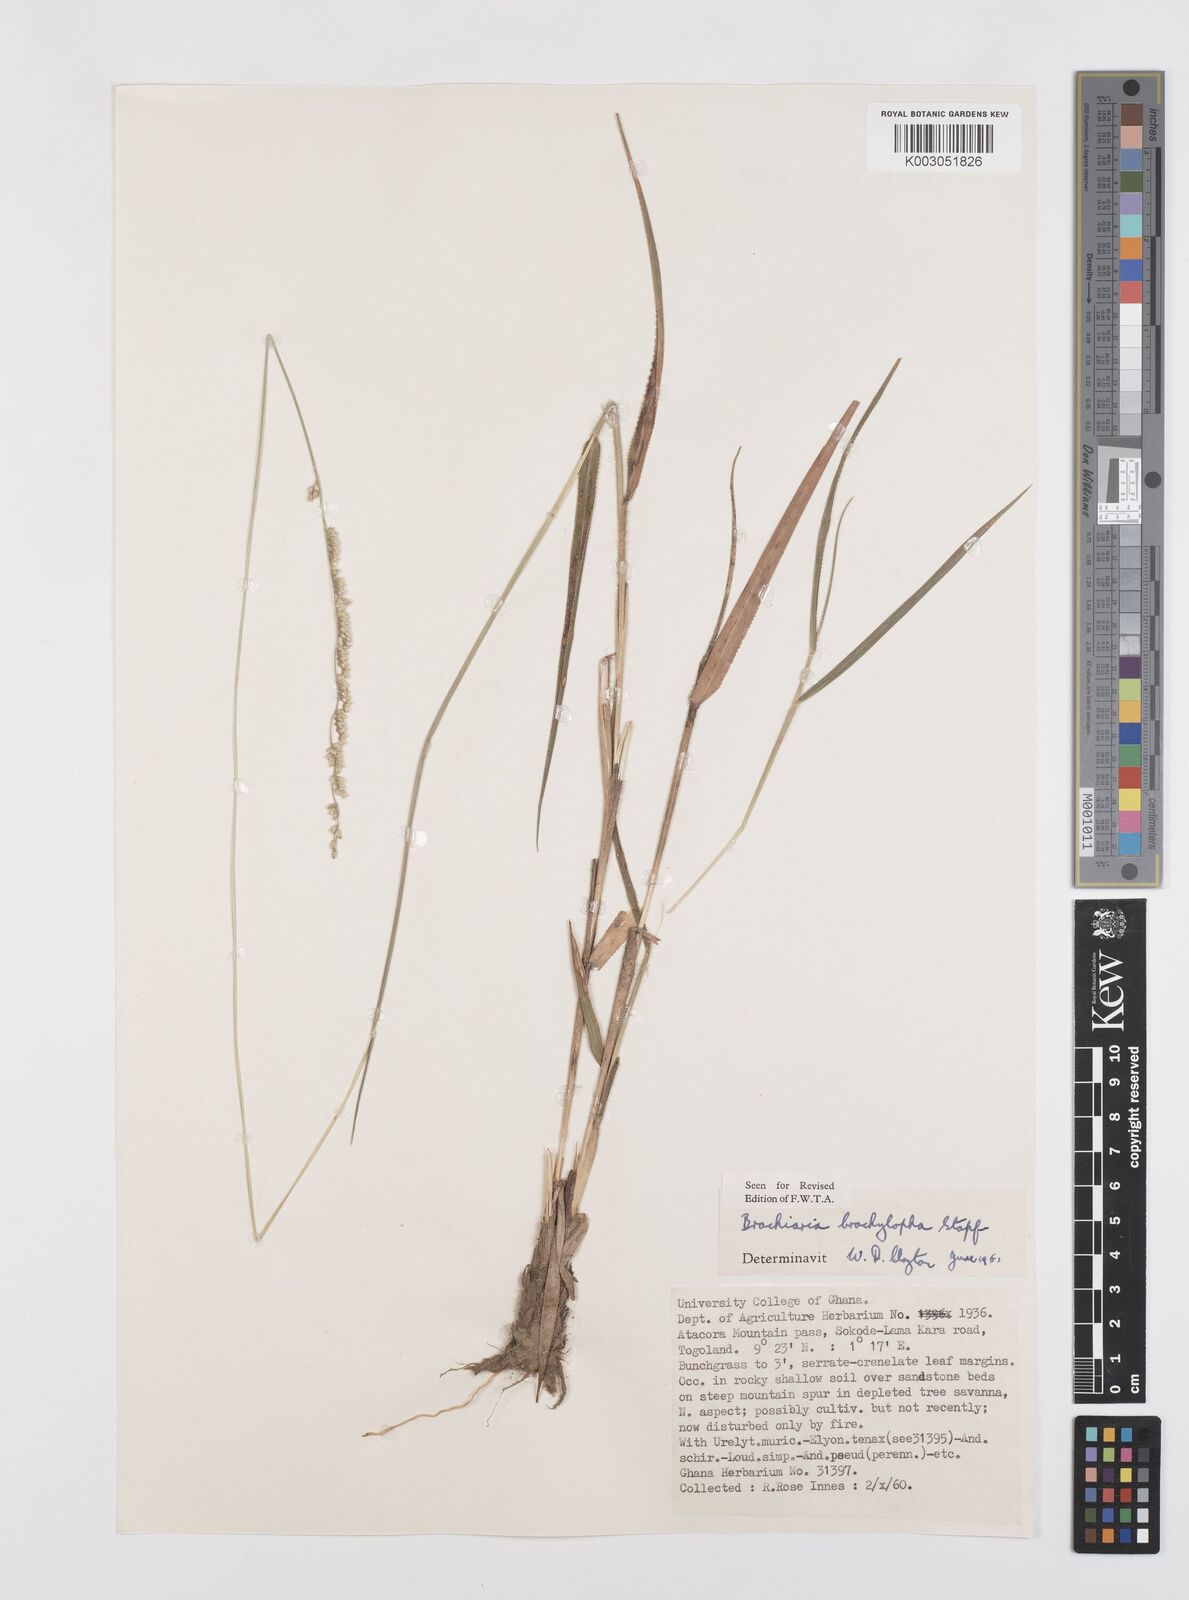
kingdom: Plantae
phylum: Tracheophyta
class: Liliopsida
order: Poales
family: Poaceae
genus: Urochloa
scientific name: Urochloa serrata
